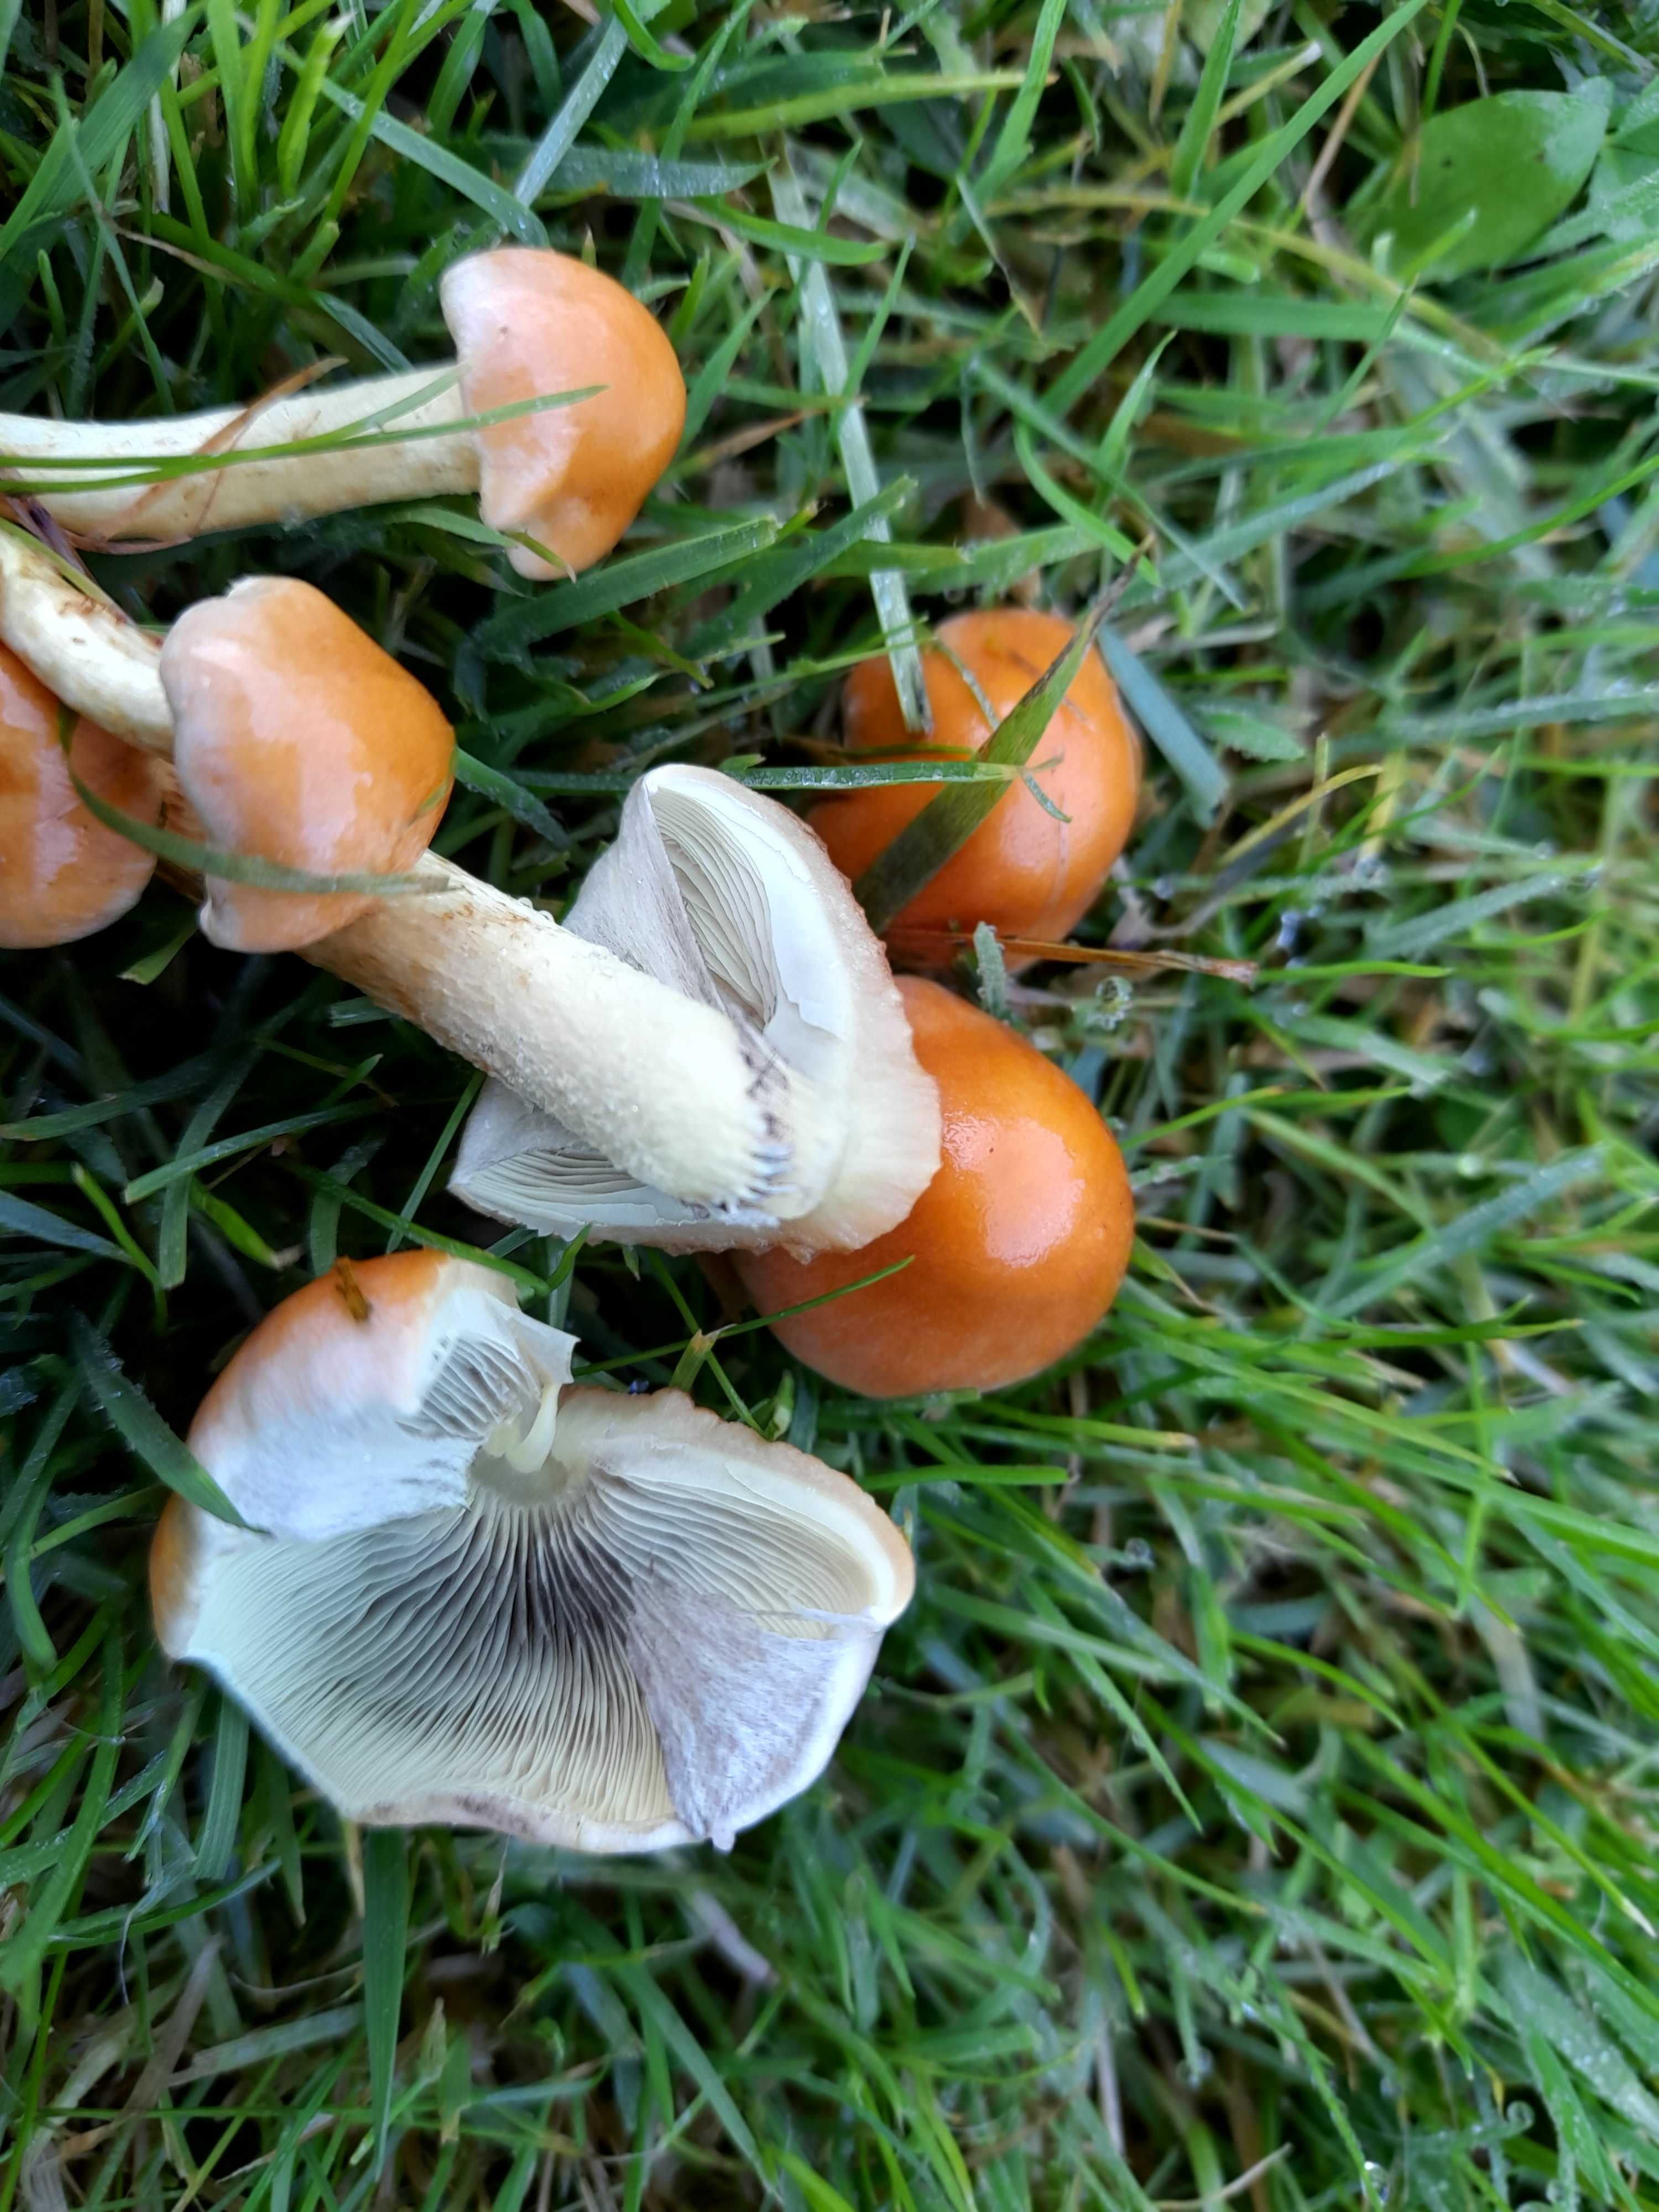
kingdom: Fungi
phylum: Basidiomycota
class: Agaricomycetes
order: Agaricales
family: Strophariaceae
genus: Hypholoma
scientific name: Hypholoma fasciculare
